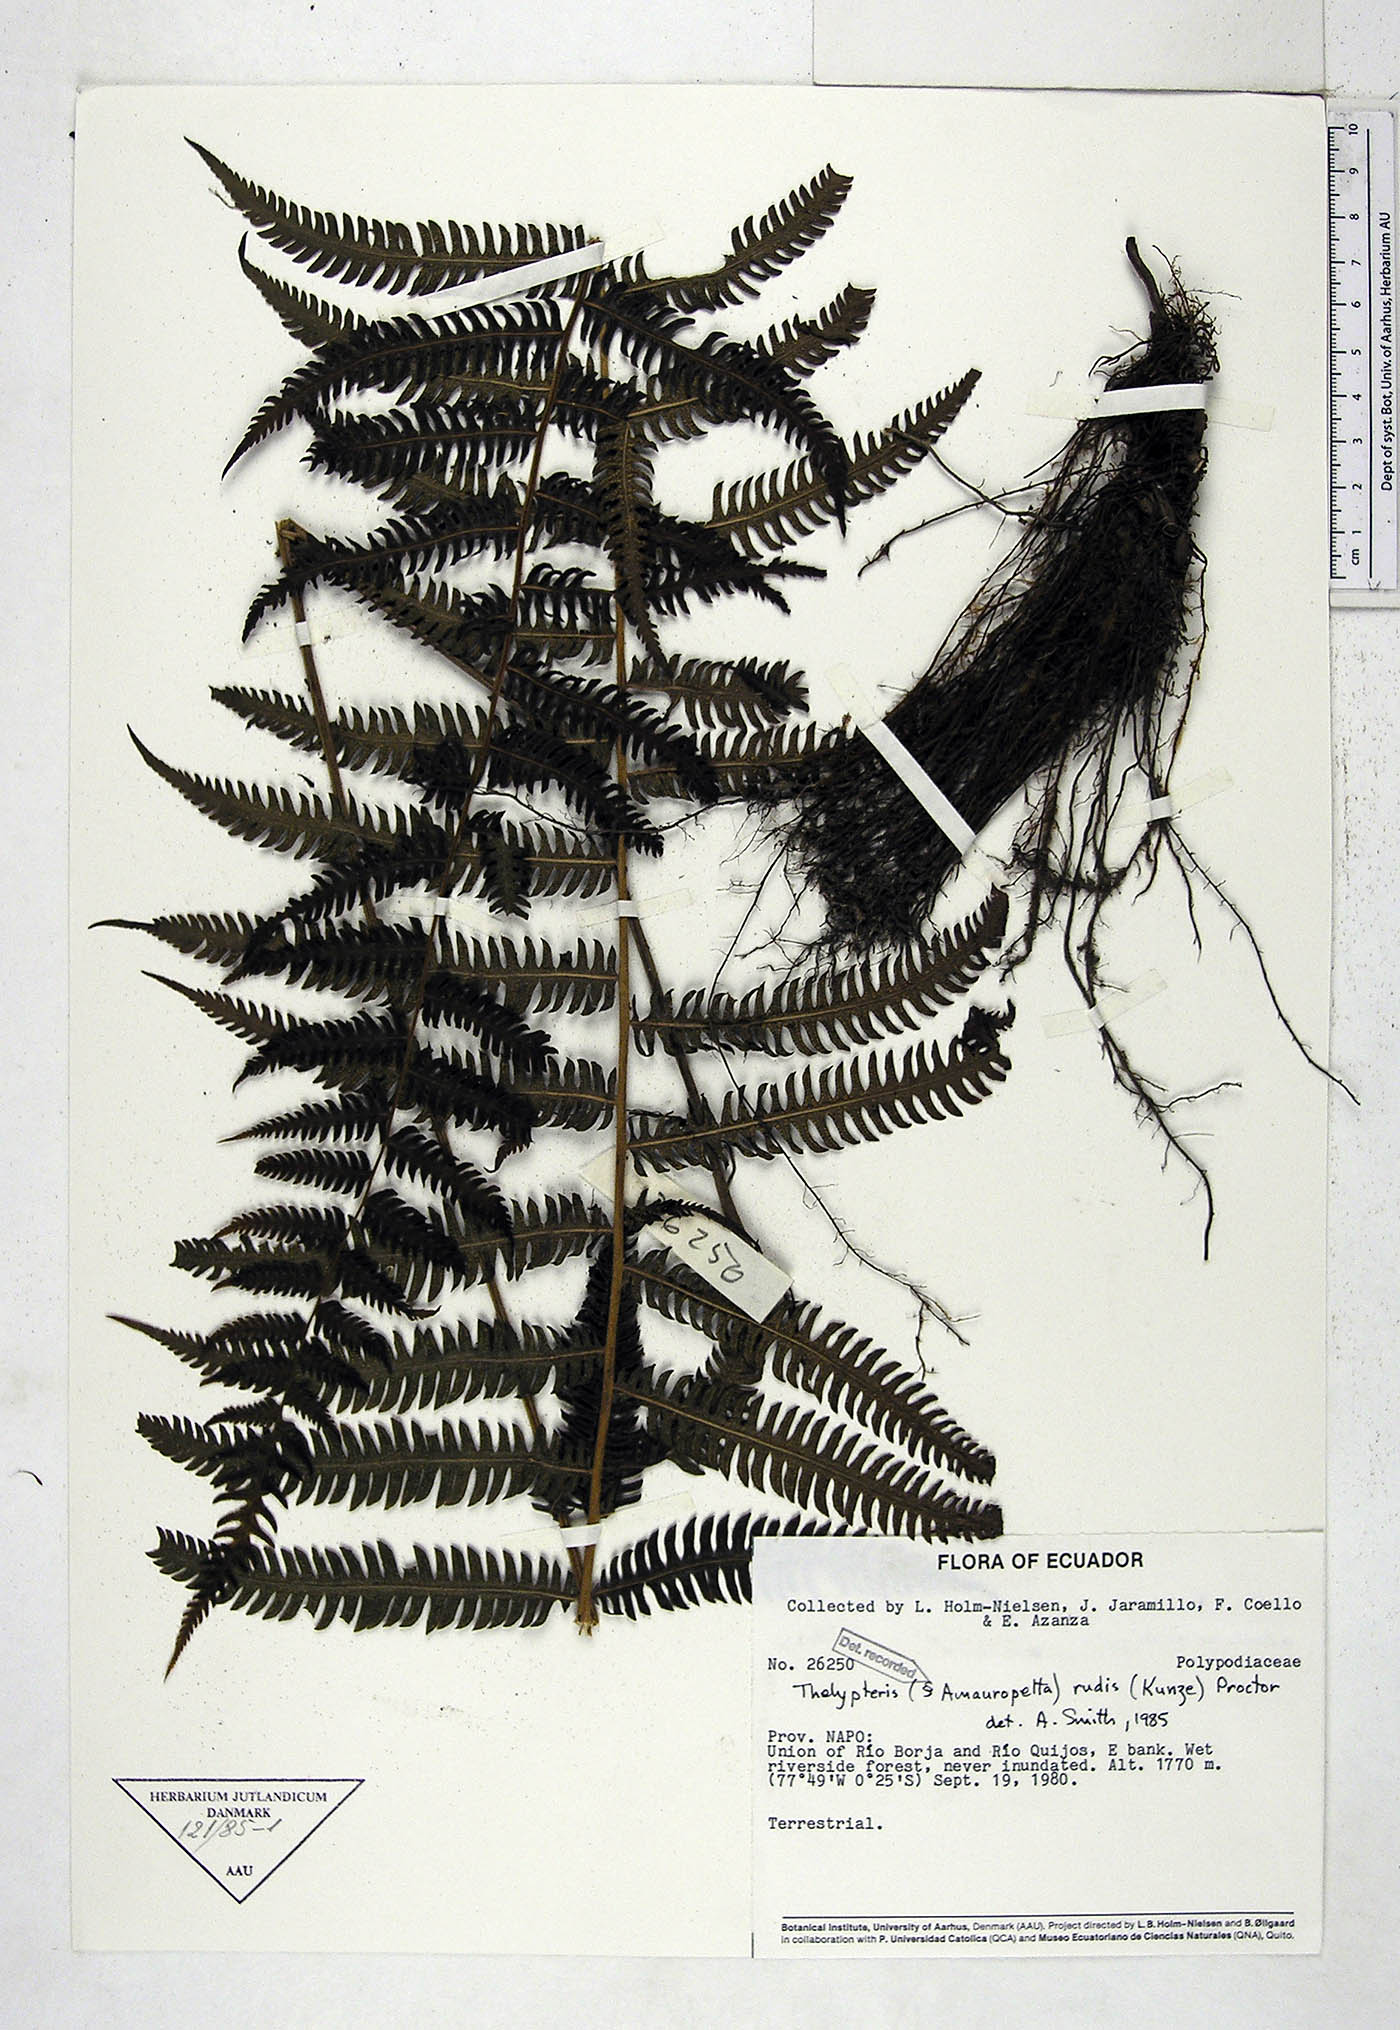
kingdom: Plantae
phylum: Tracheophyta
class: Polypodiopsida
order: Polypodiales
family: Thelypteridaceae
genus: Amauropelta
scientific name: Amauropelta rudis
